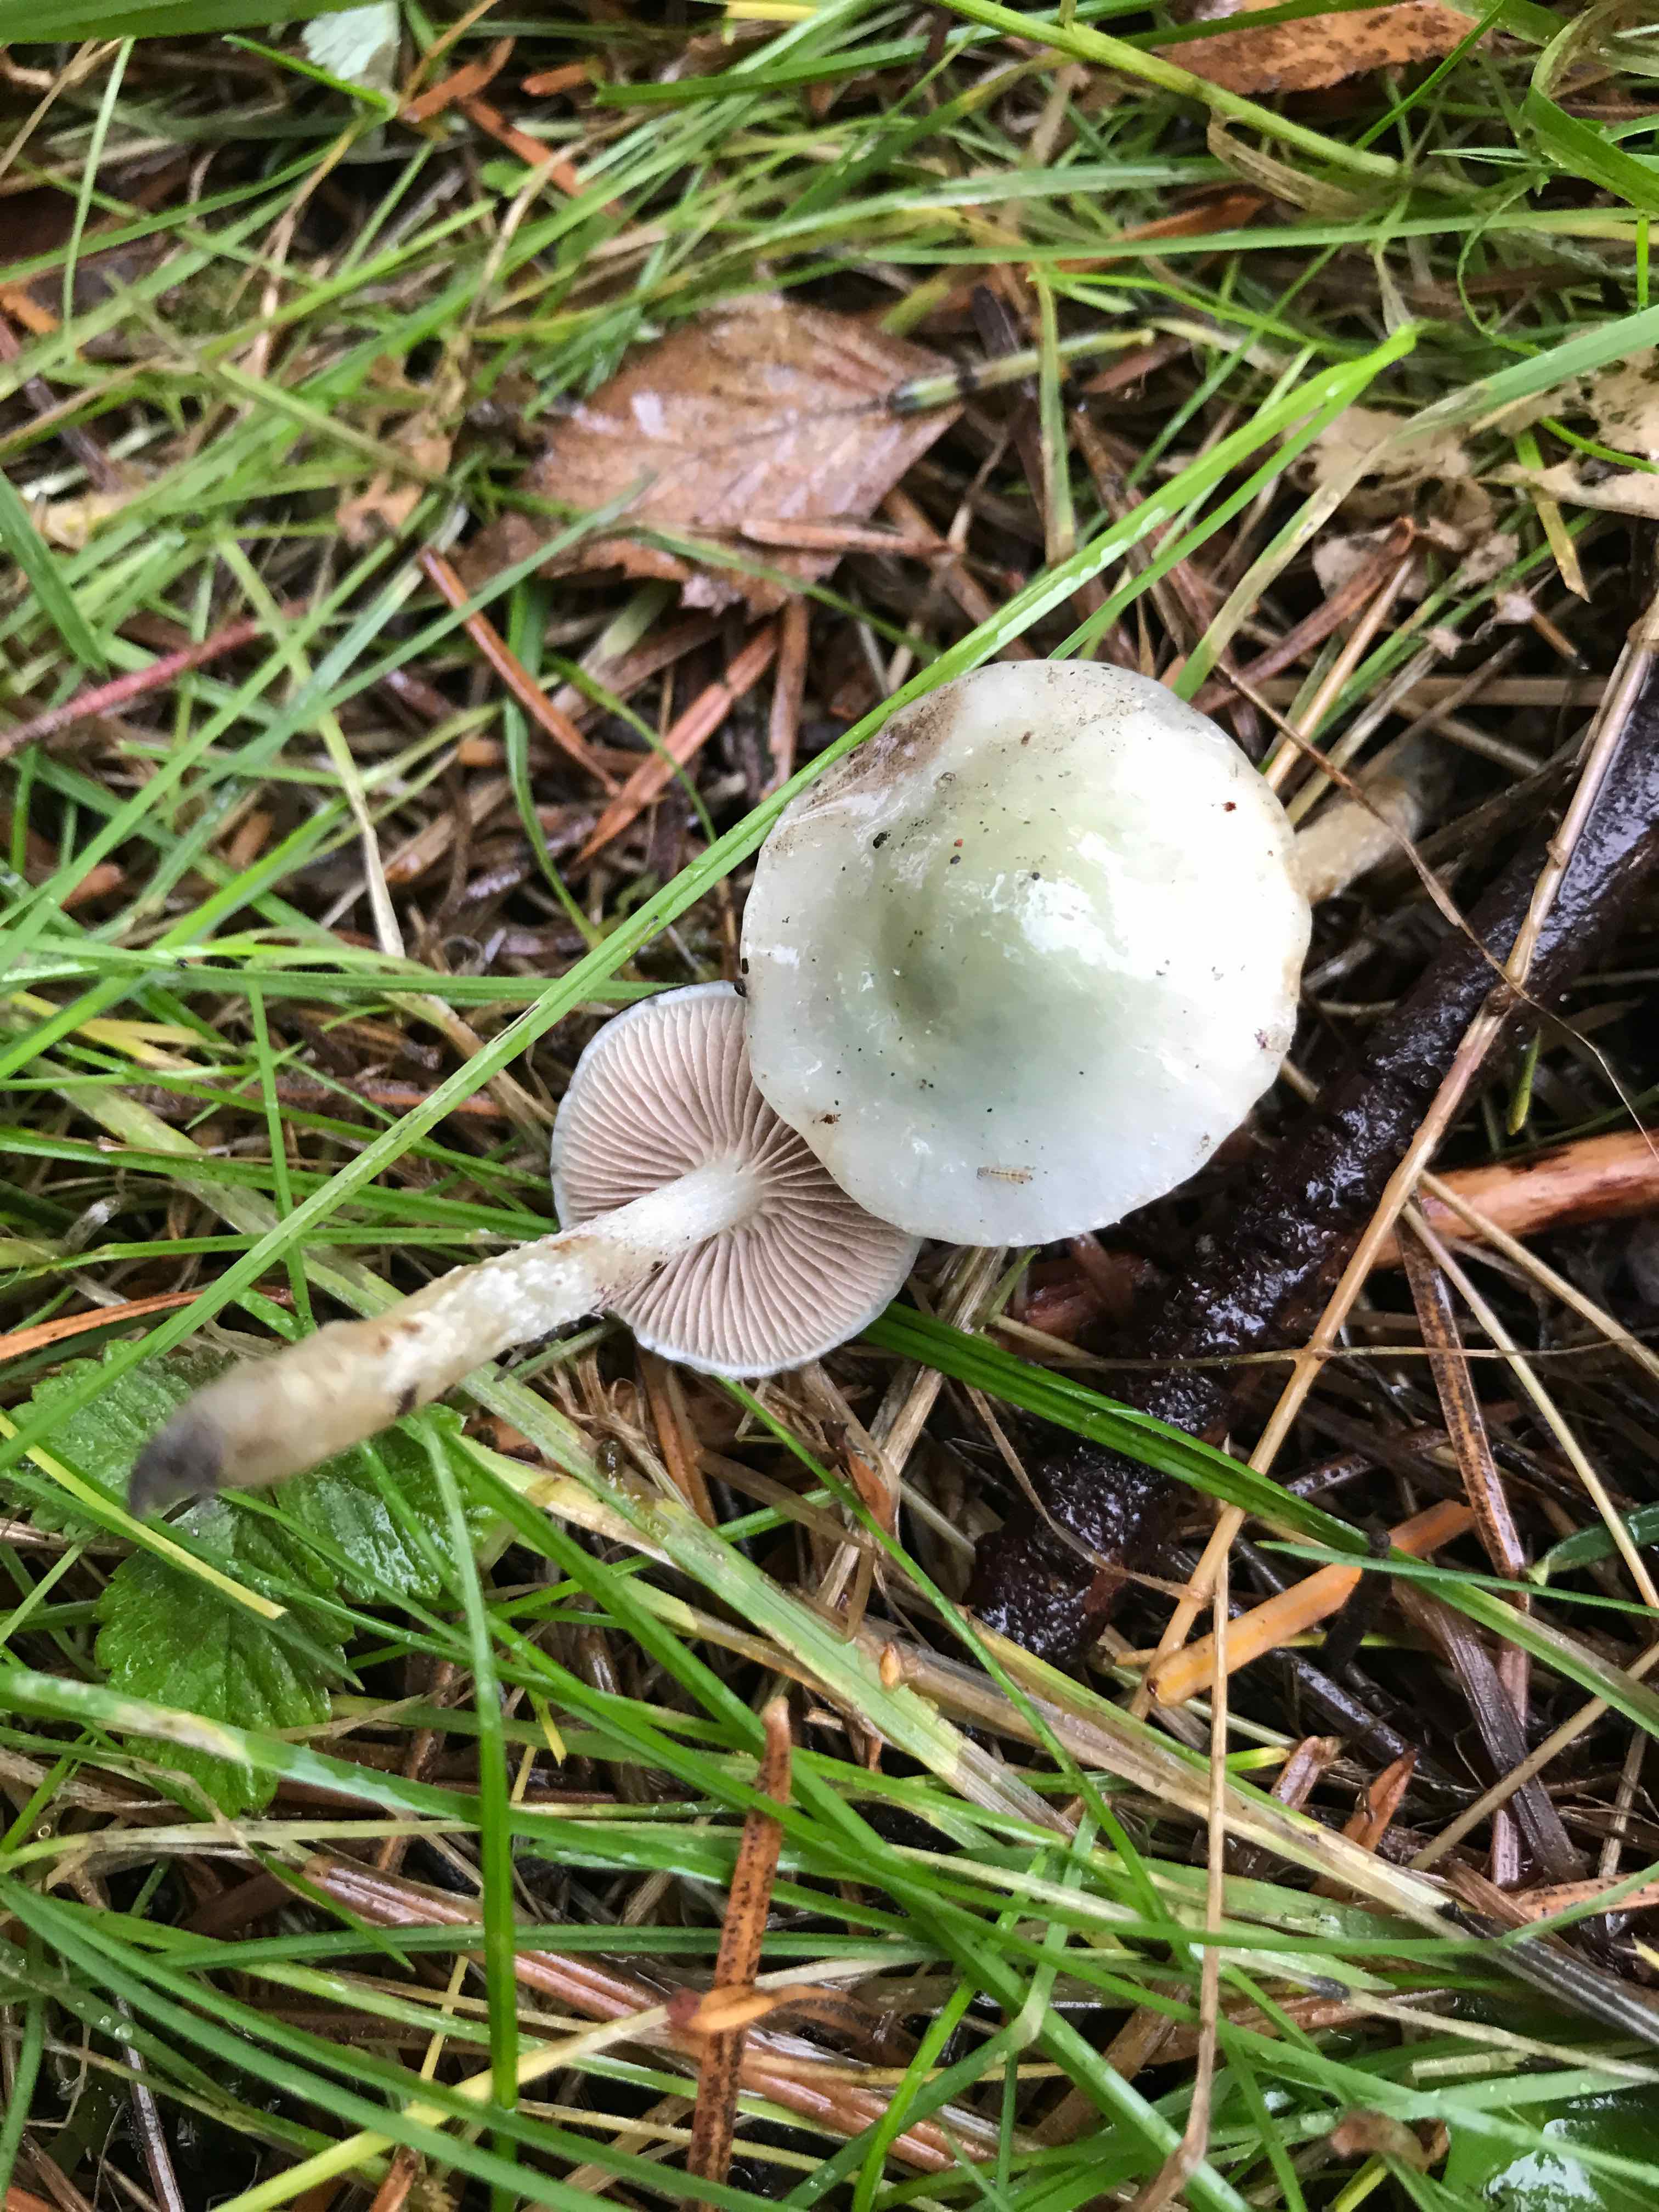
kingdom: Fungi
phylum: Basidiomycota
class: Agaricomycetes
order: Agaricales
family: Strophariaceae
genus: Stropharia
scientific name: Stropharia
